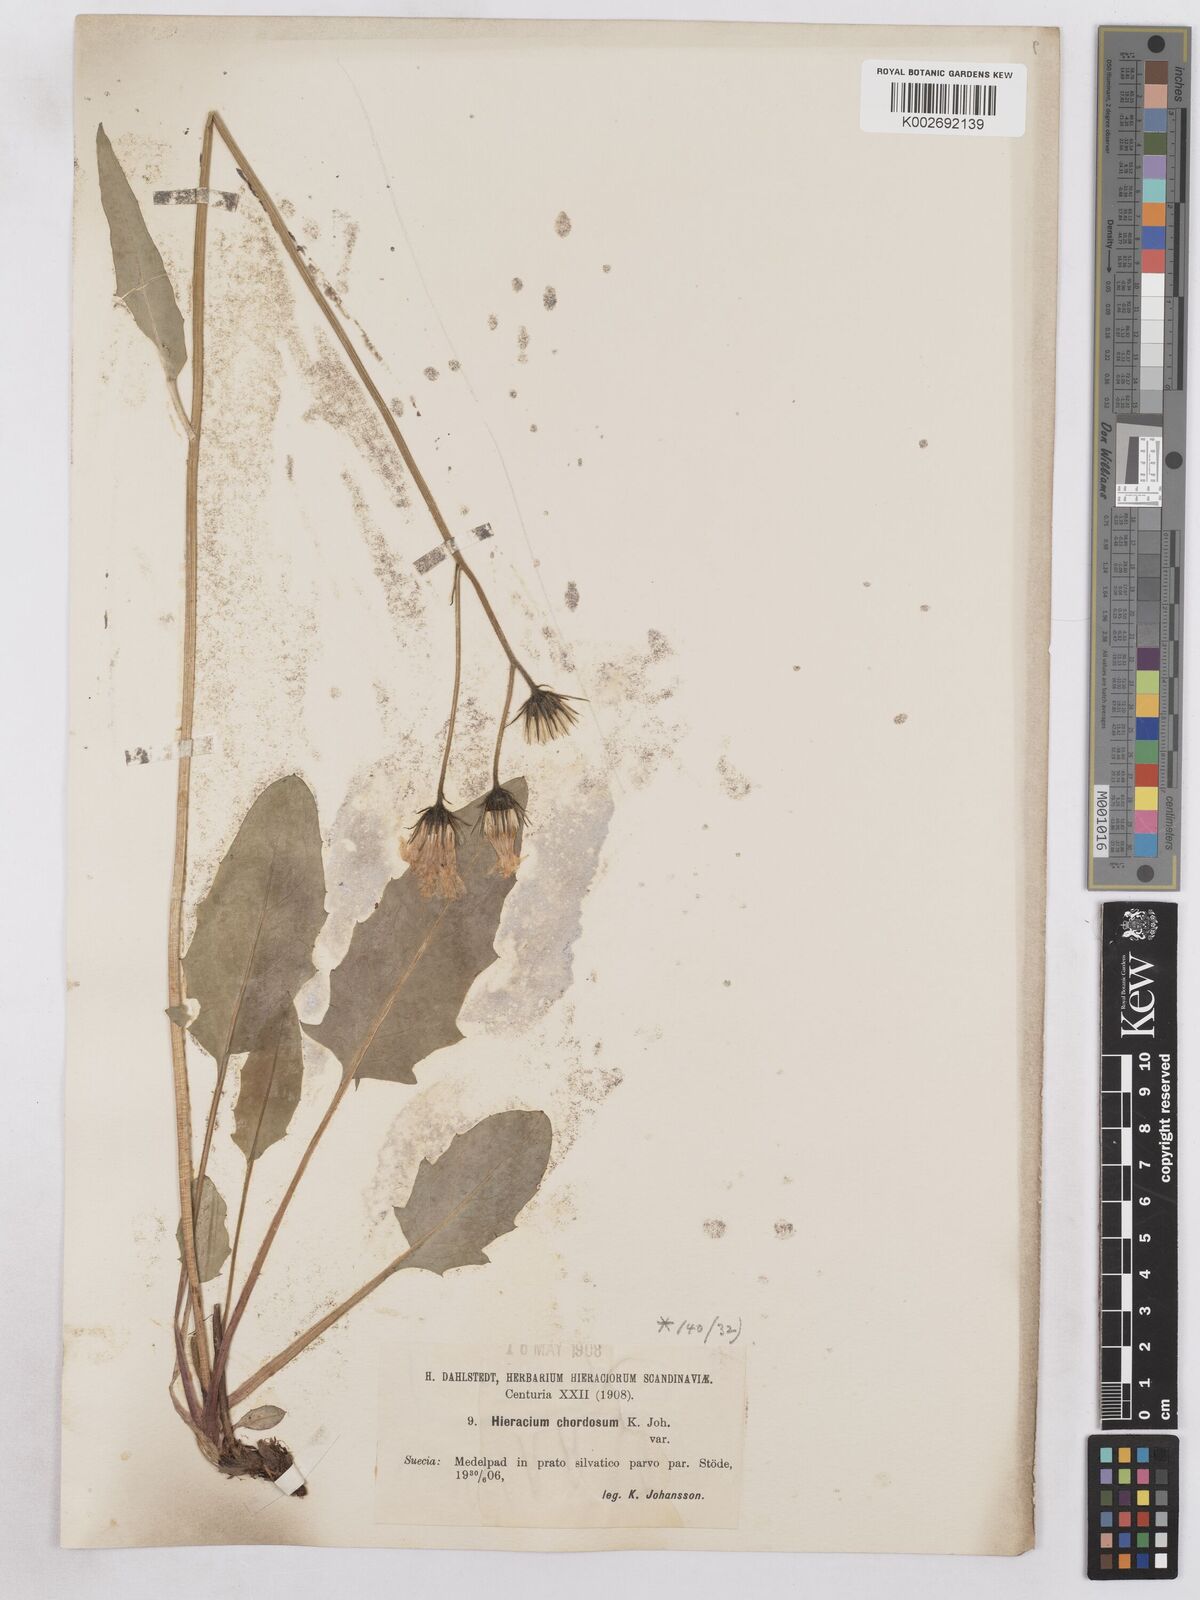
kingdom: Plantae
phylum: Tracheophyta
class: Magnoliopsida
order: Asterales
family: Asteraceae
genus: Hieracium
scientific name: Hieracium chordosum
